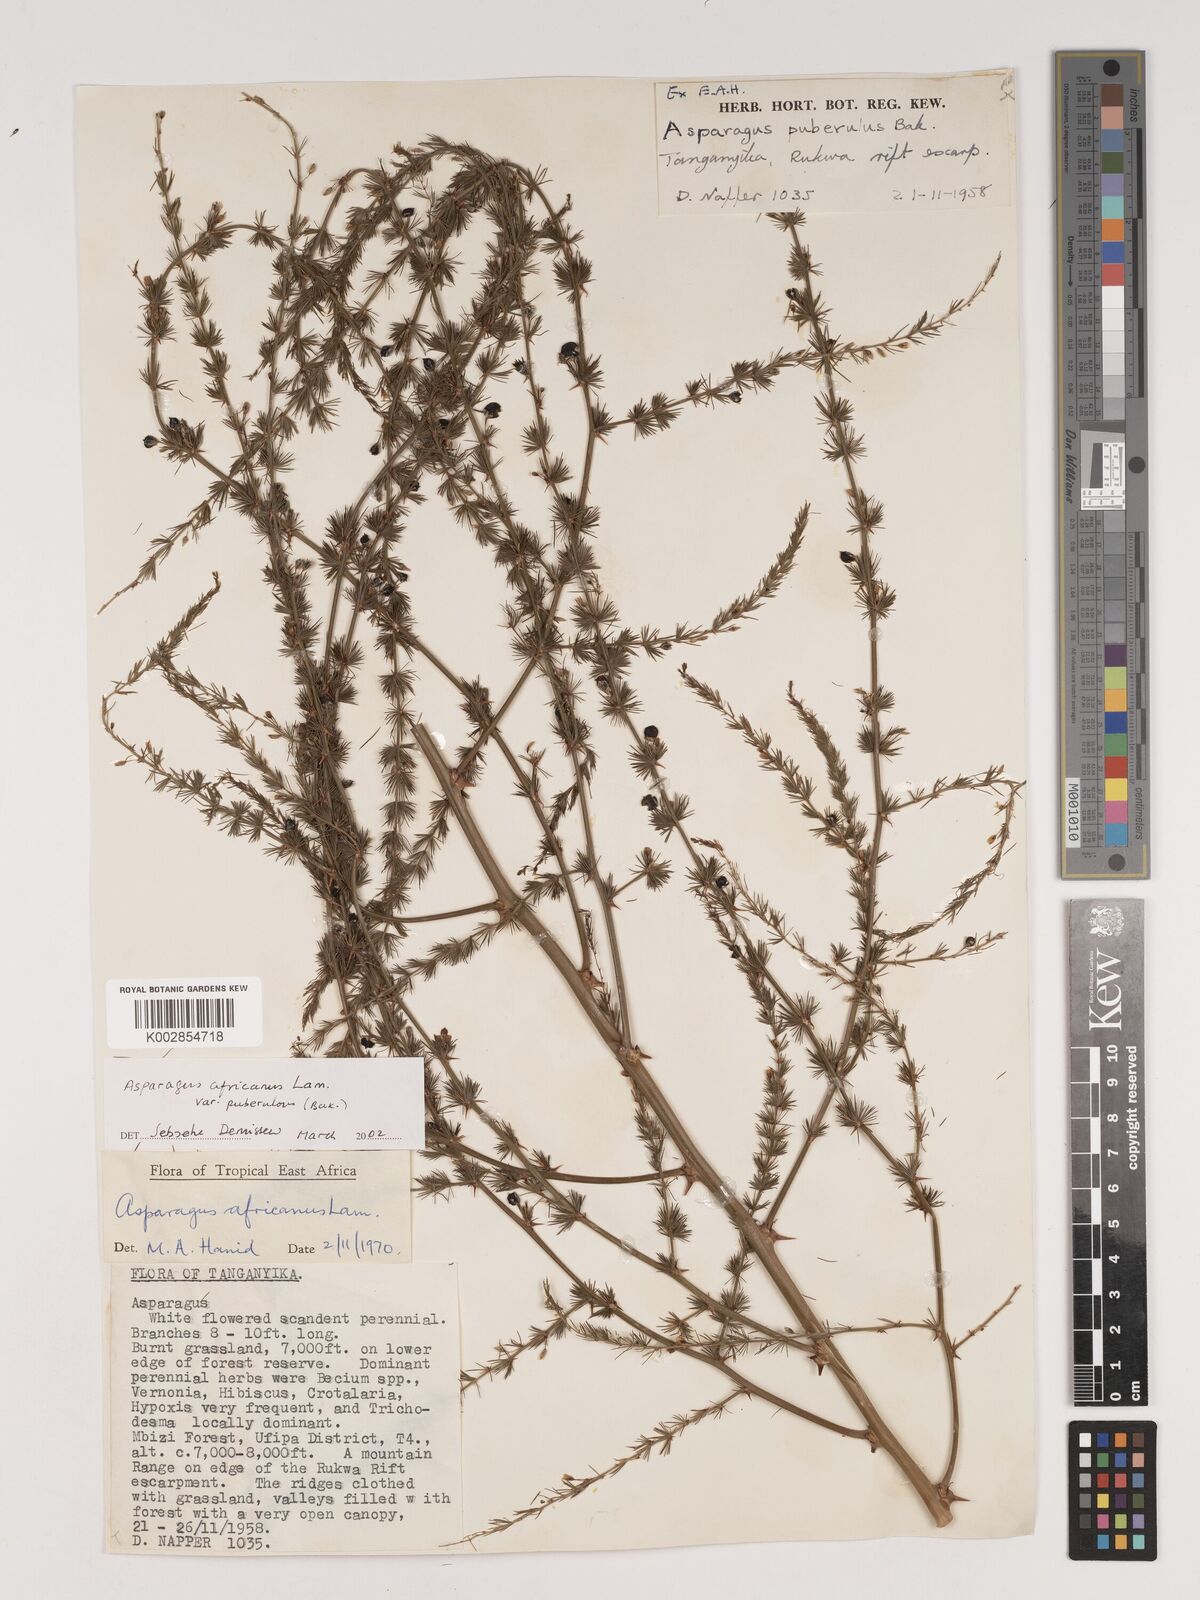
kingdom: Plantae
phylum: Tracheophyta
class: Liliopsida
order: Asparagales
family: Asparagaceae
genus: Asparagus
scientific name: Asparagus africanus
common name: Asparagus-fern
